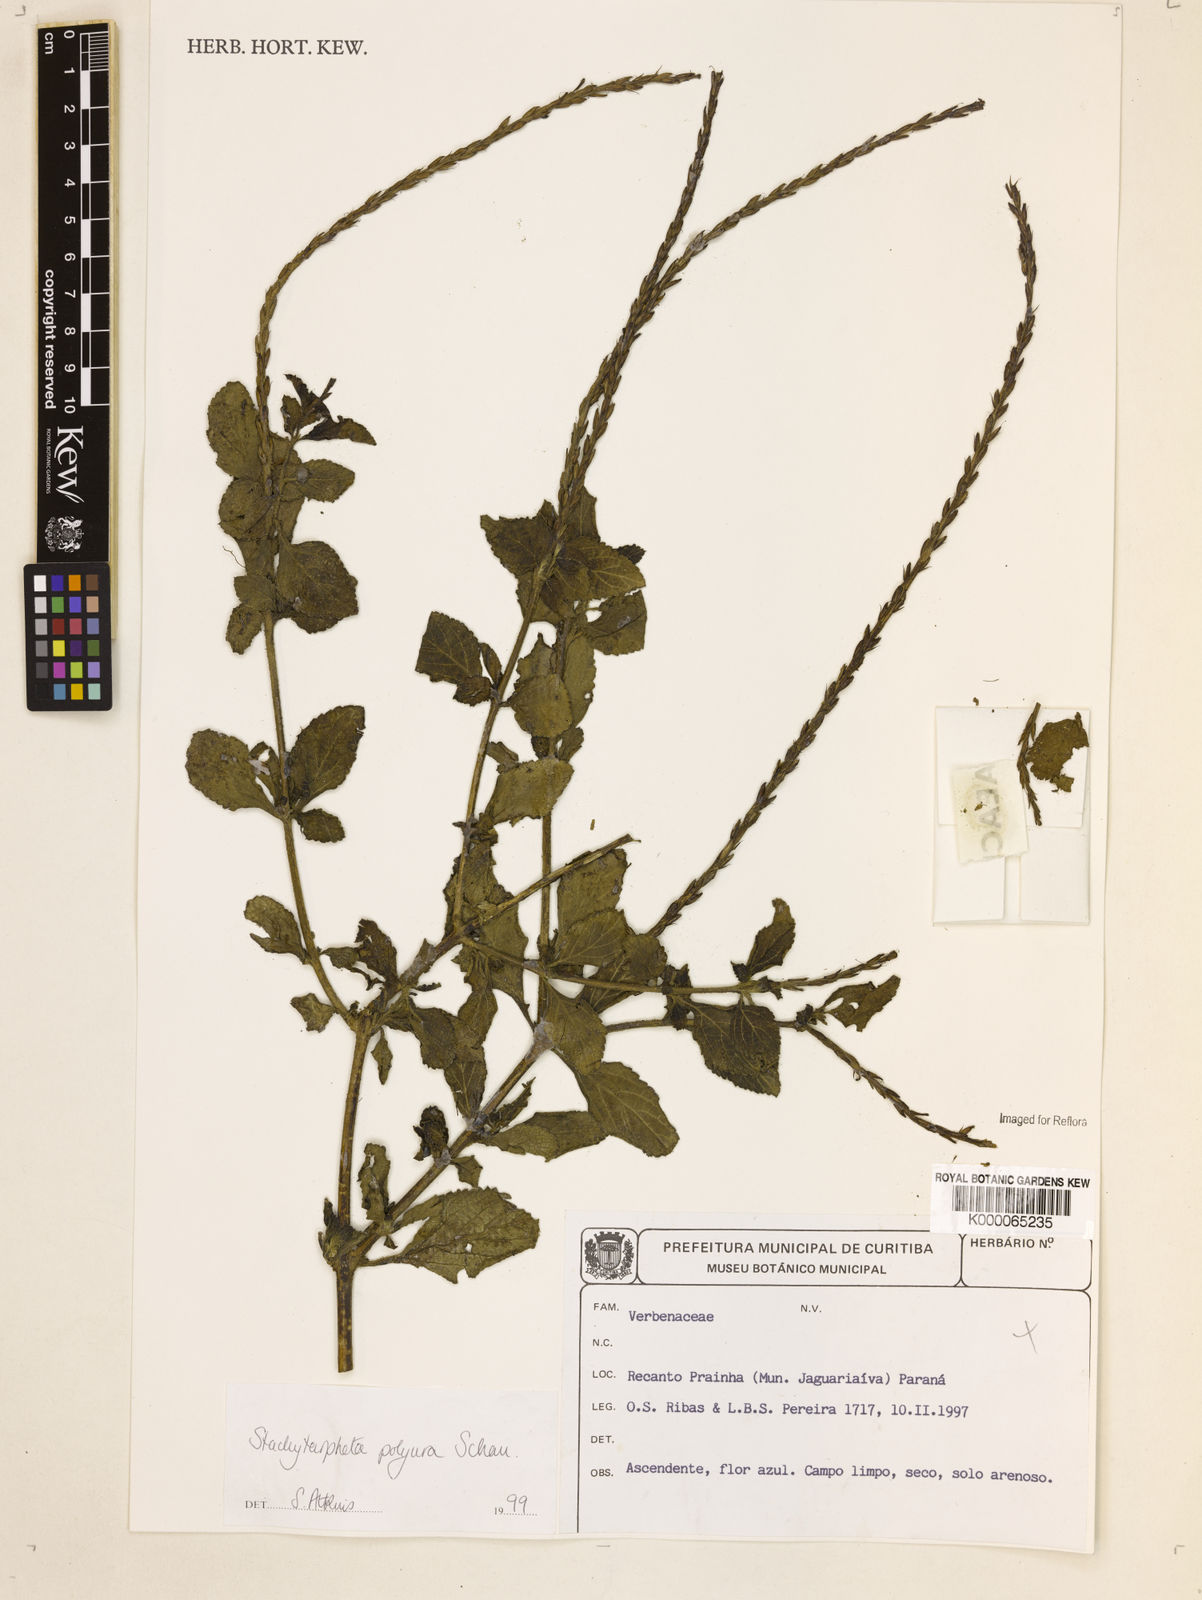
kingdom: Plantae
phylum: Tracheophyta
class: Magnoliopsida
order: Lamiales
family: Verbenaceae
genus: Stachytarpheta
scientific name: Stachytarpheta polyura
